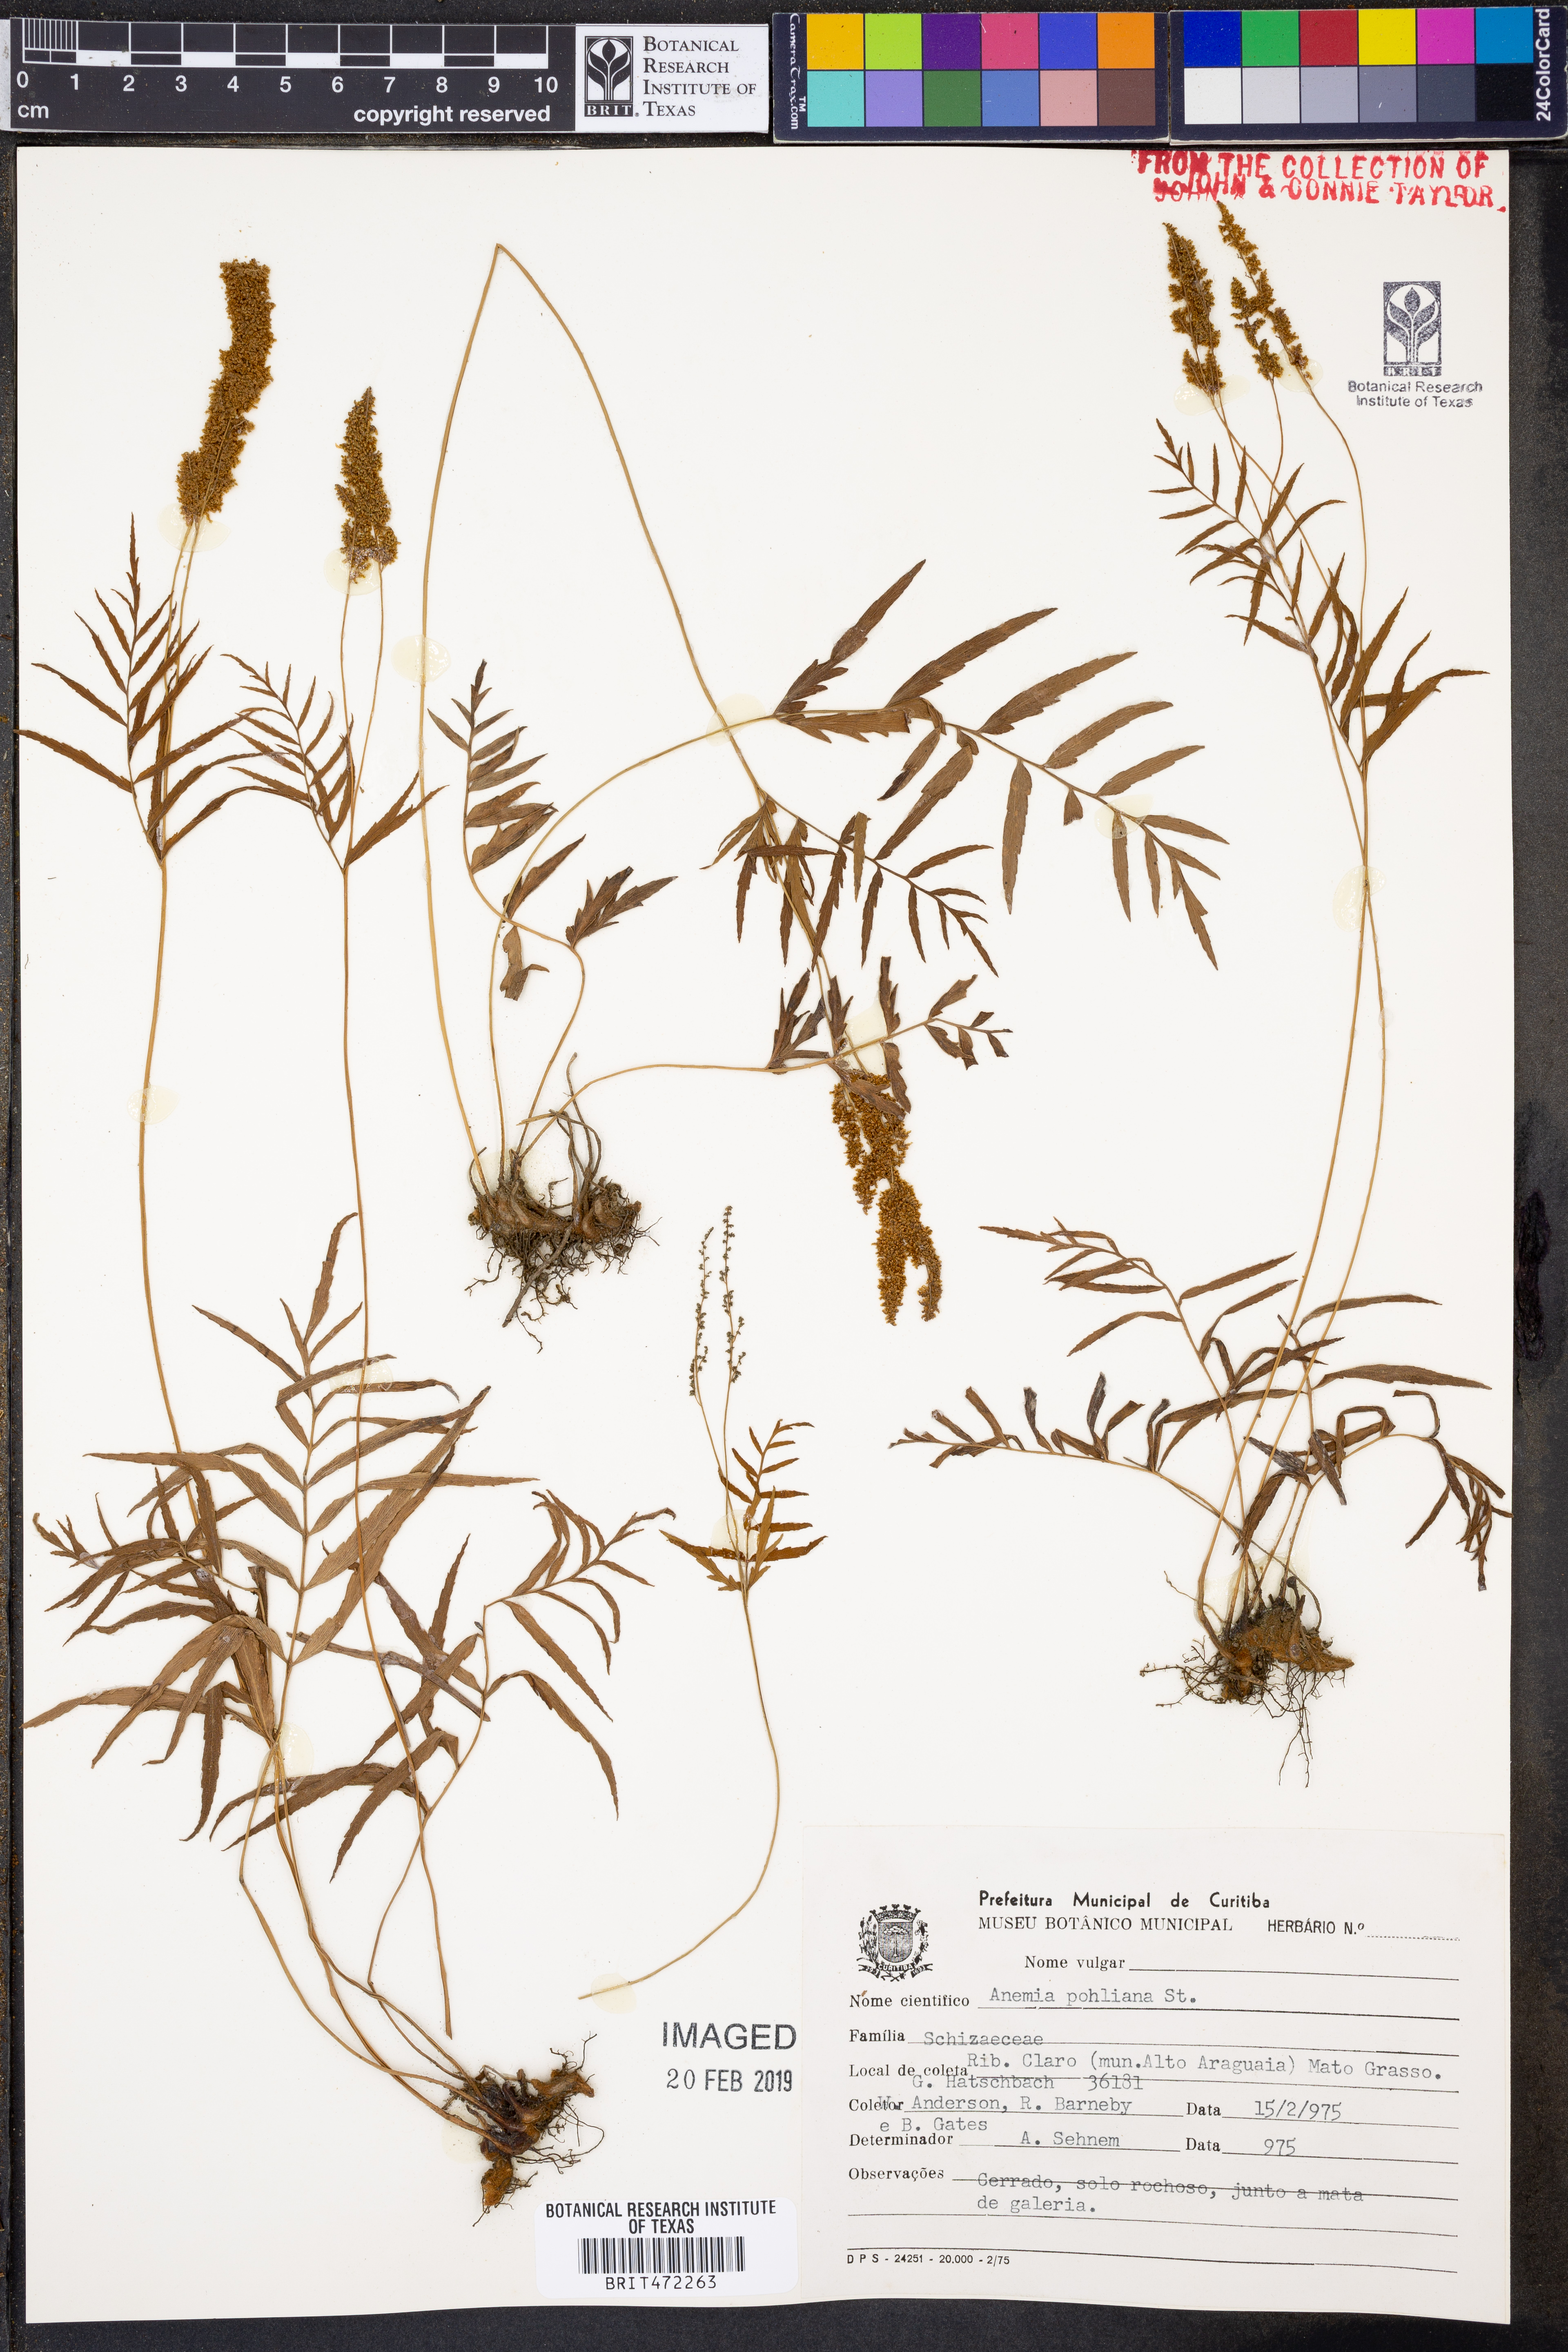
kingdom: Plantae
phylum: Tracheophyta
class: Polypodiopsida
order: Schizaeales
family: Anemiaceae
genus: Anemia
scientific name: Anemia hirta
